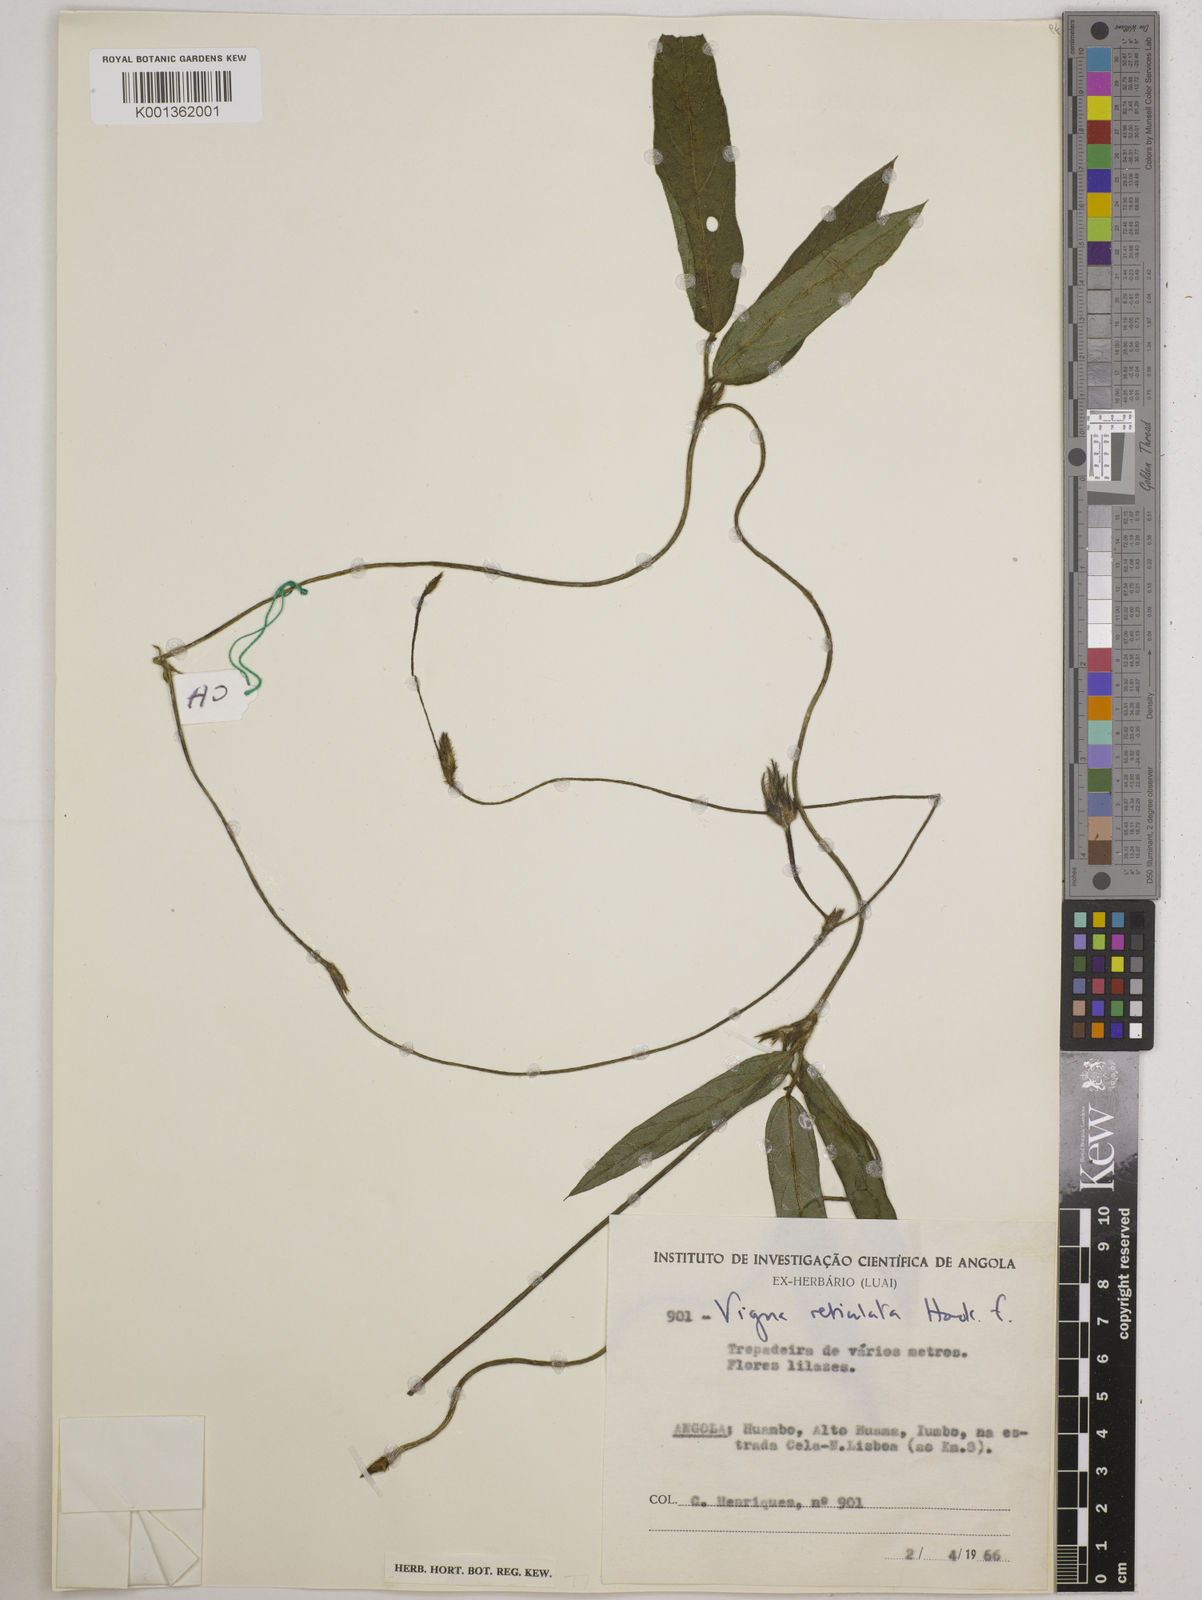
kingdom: Plantae
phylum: Tracheophyta
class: Magnoliopsida
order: Fabales
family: Fabaceae
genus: Vigna
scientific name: Vigna reticulata
